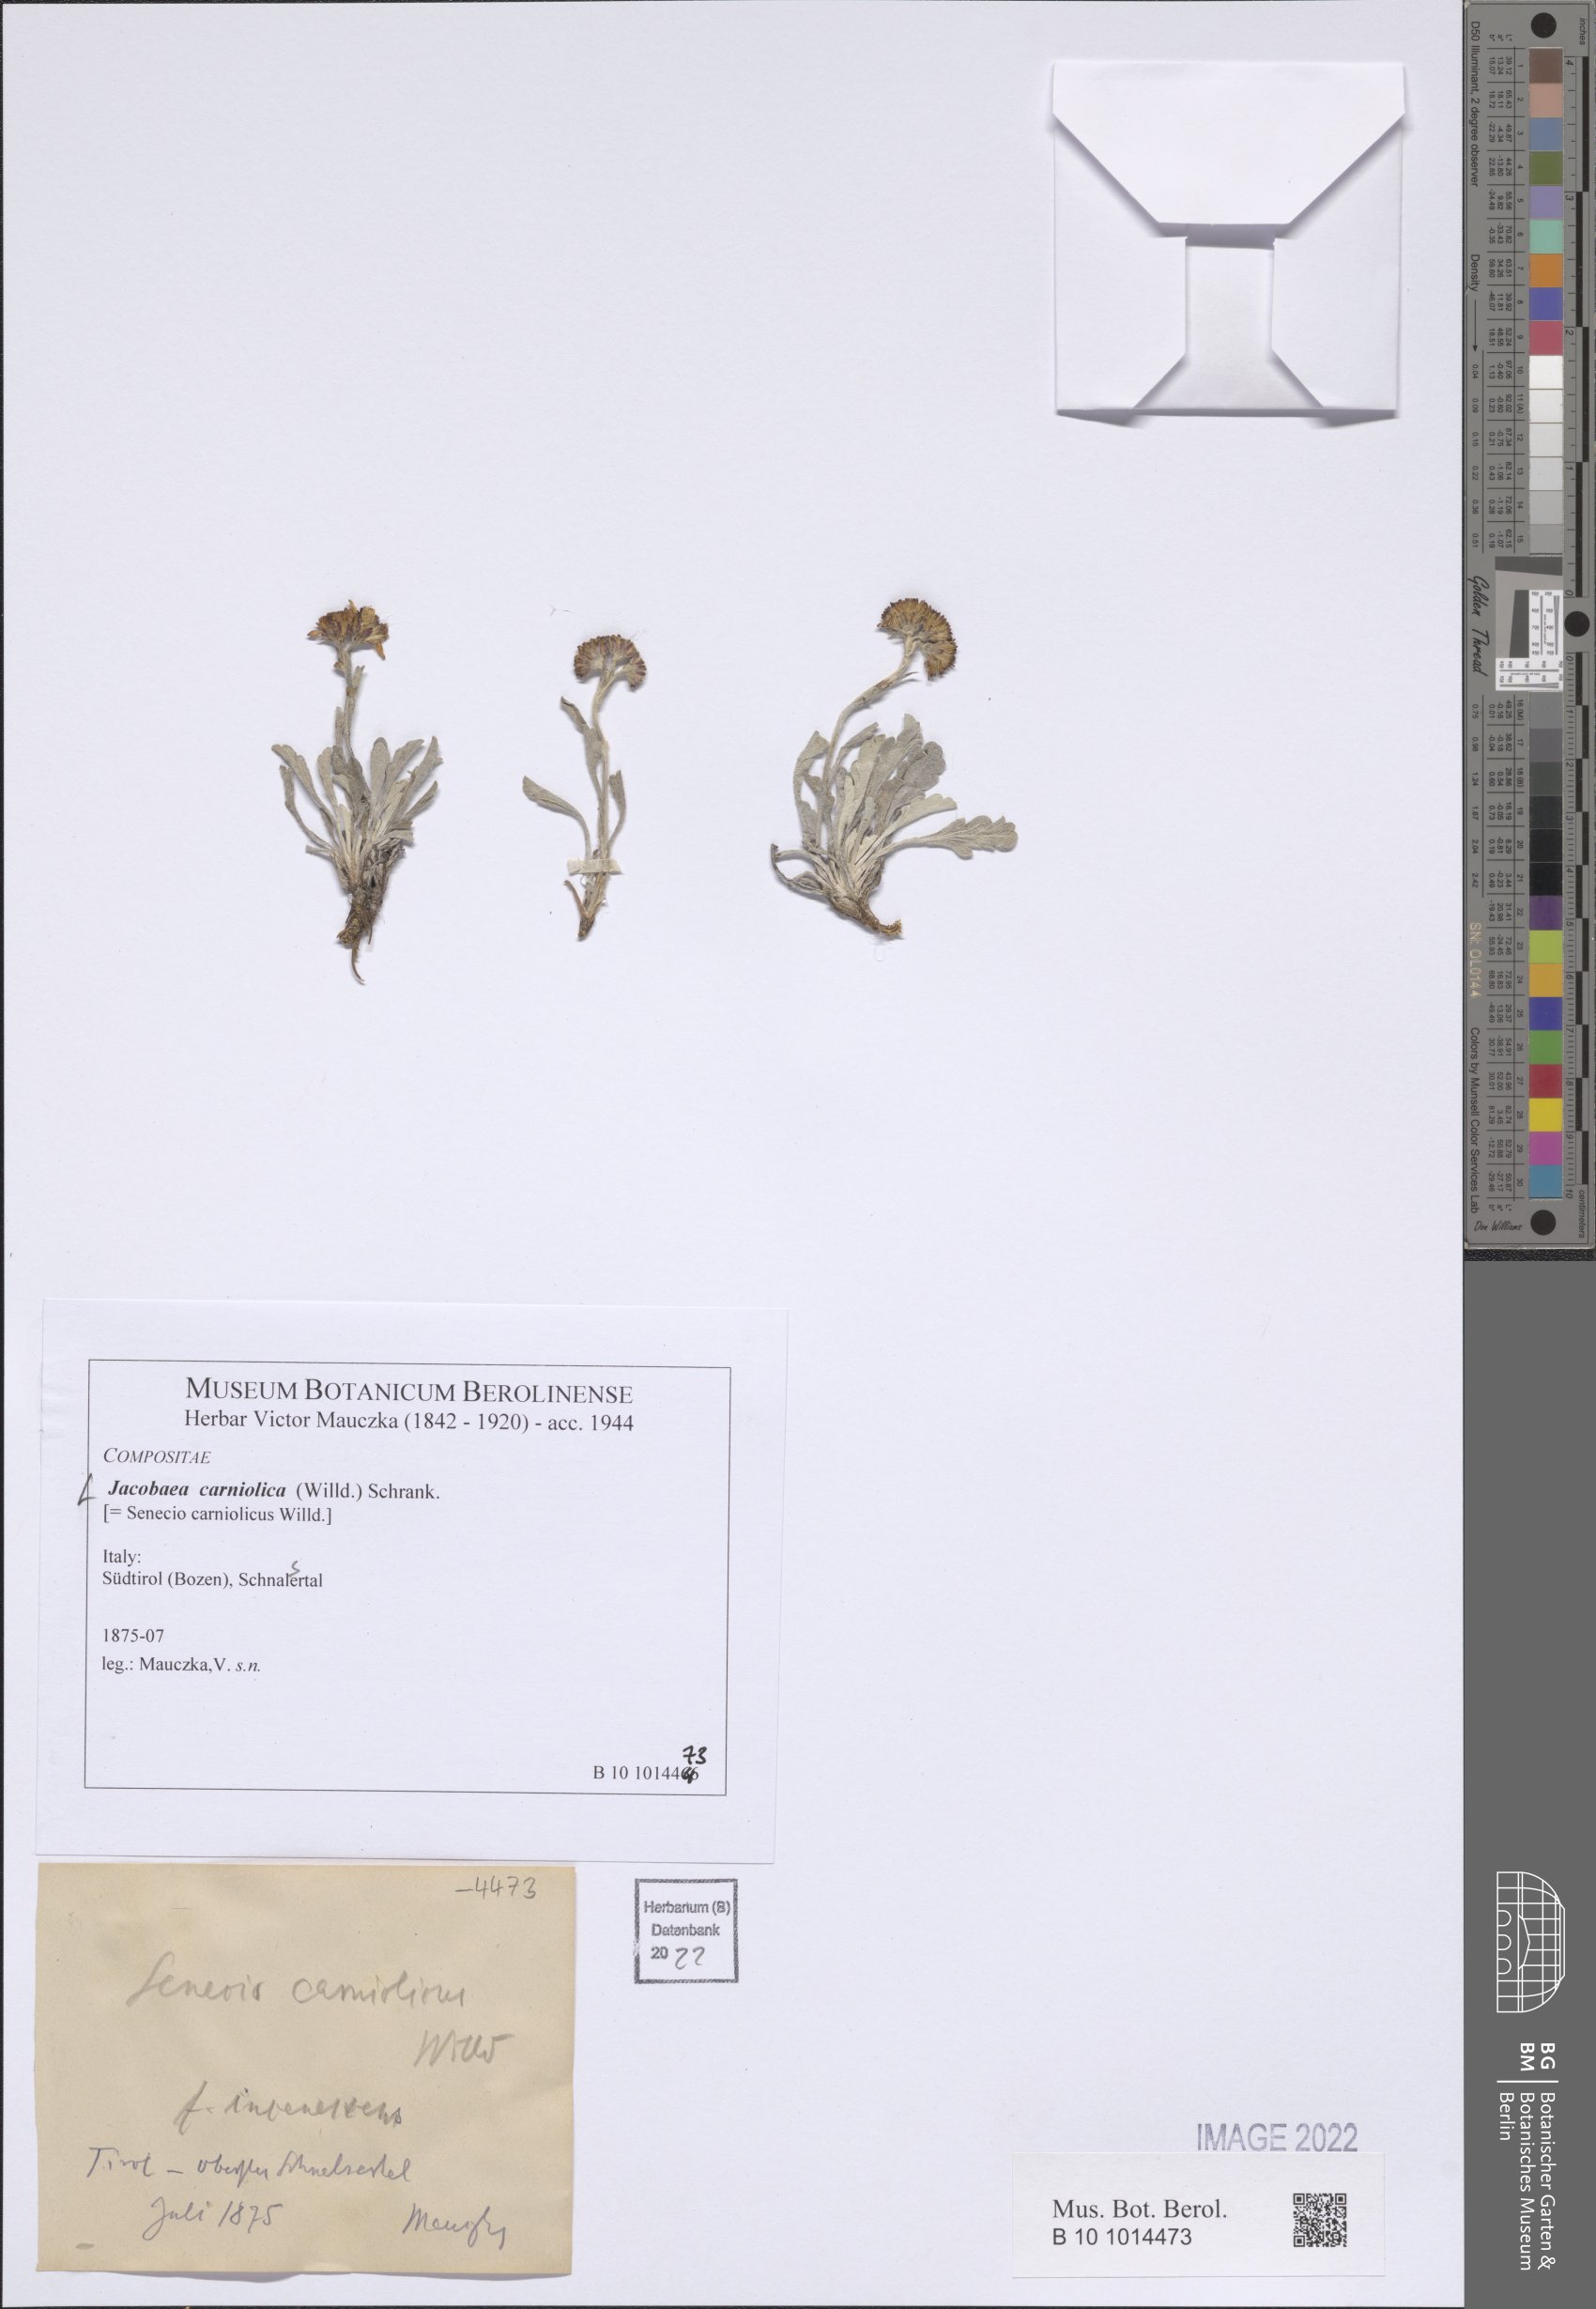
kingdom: Plantae
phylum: Tracheophyta
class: Magnoliopsida
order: Asterales
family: Asteraceae
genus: Jacobaea
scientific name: Jacobaea carniolica
